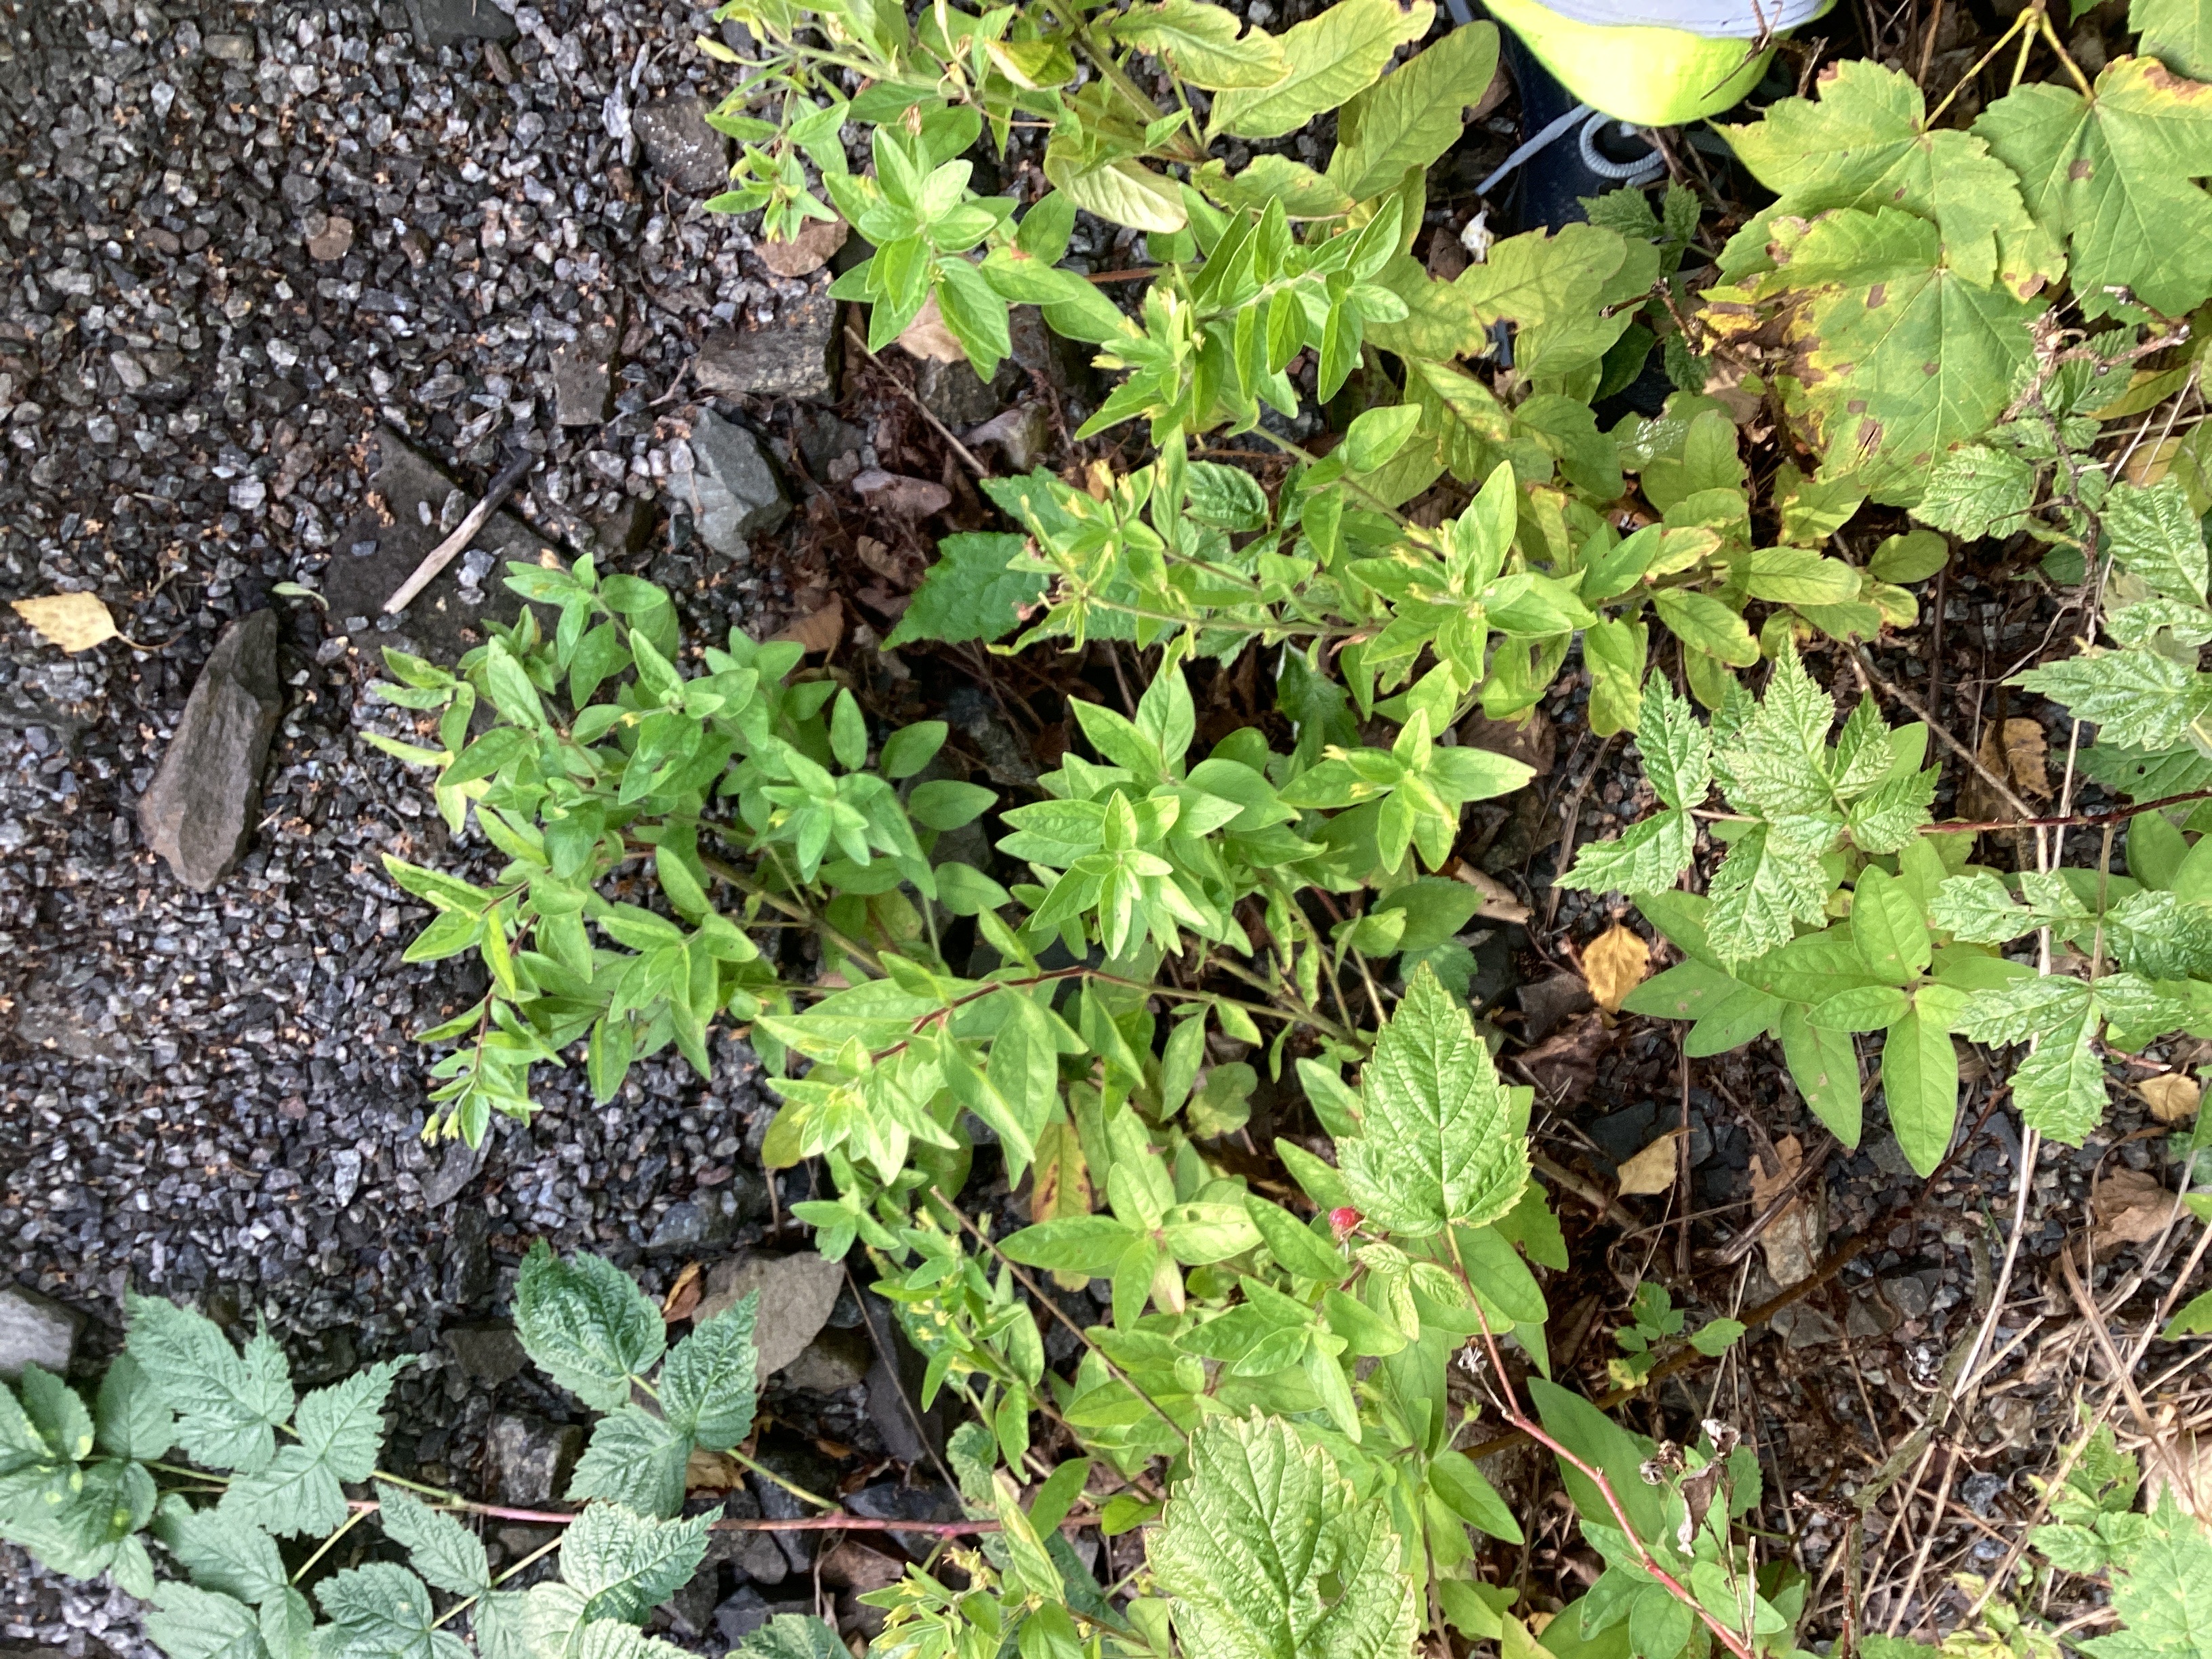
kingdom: Plantae
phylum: Tracheophyta
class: Magnoliopsida
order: Ericales
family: Primulaceae
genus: Lysimachia
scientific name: Lysimachia punctata
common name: fagerfredløs
